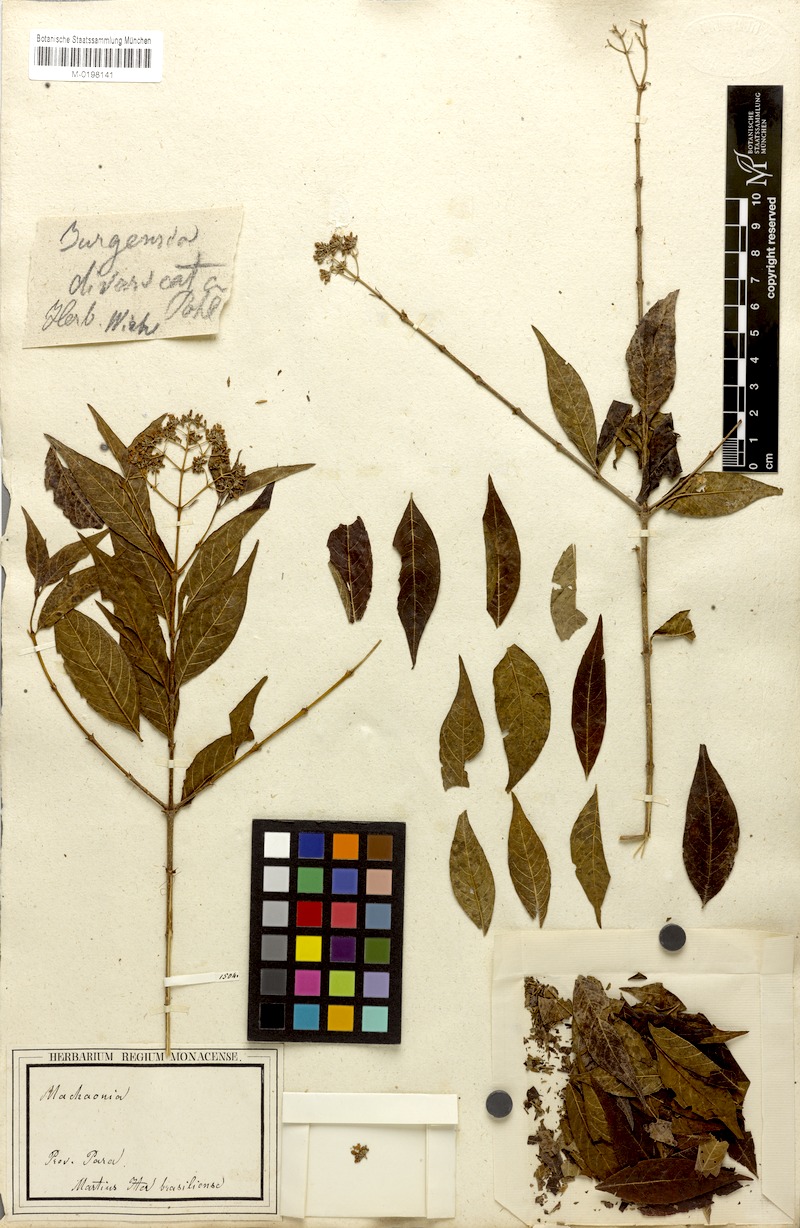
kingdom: Plantae
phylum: Tracheophyta
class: Magnoliopsida
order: Gentianales
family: Rubiaceae
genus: Machaonia
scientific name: Machaonia brasiliensis
